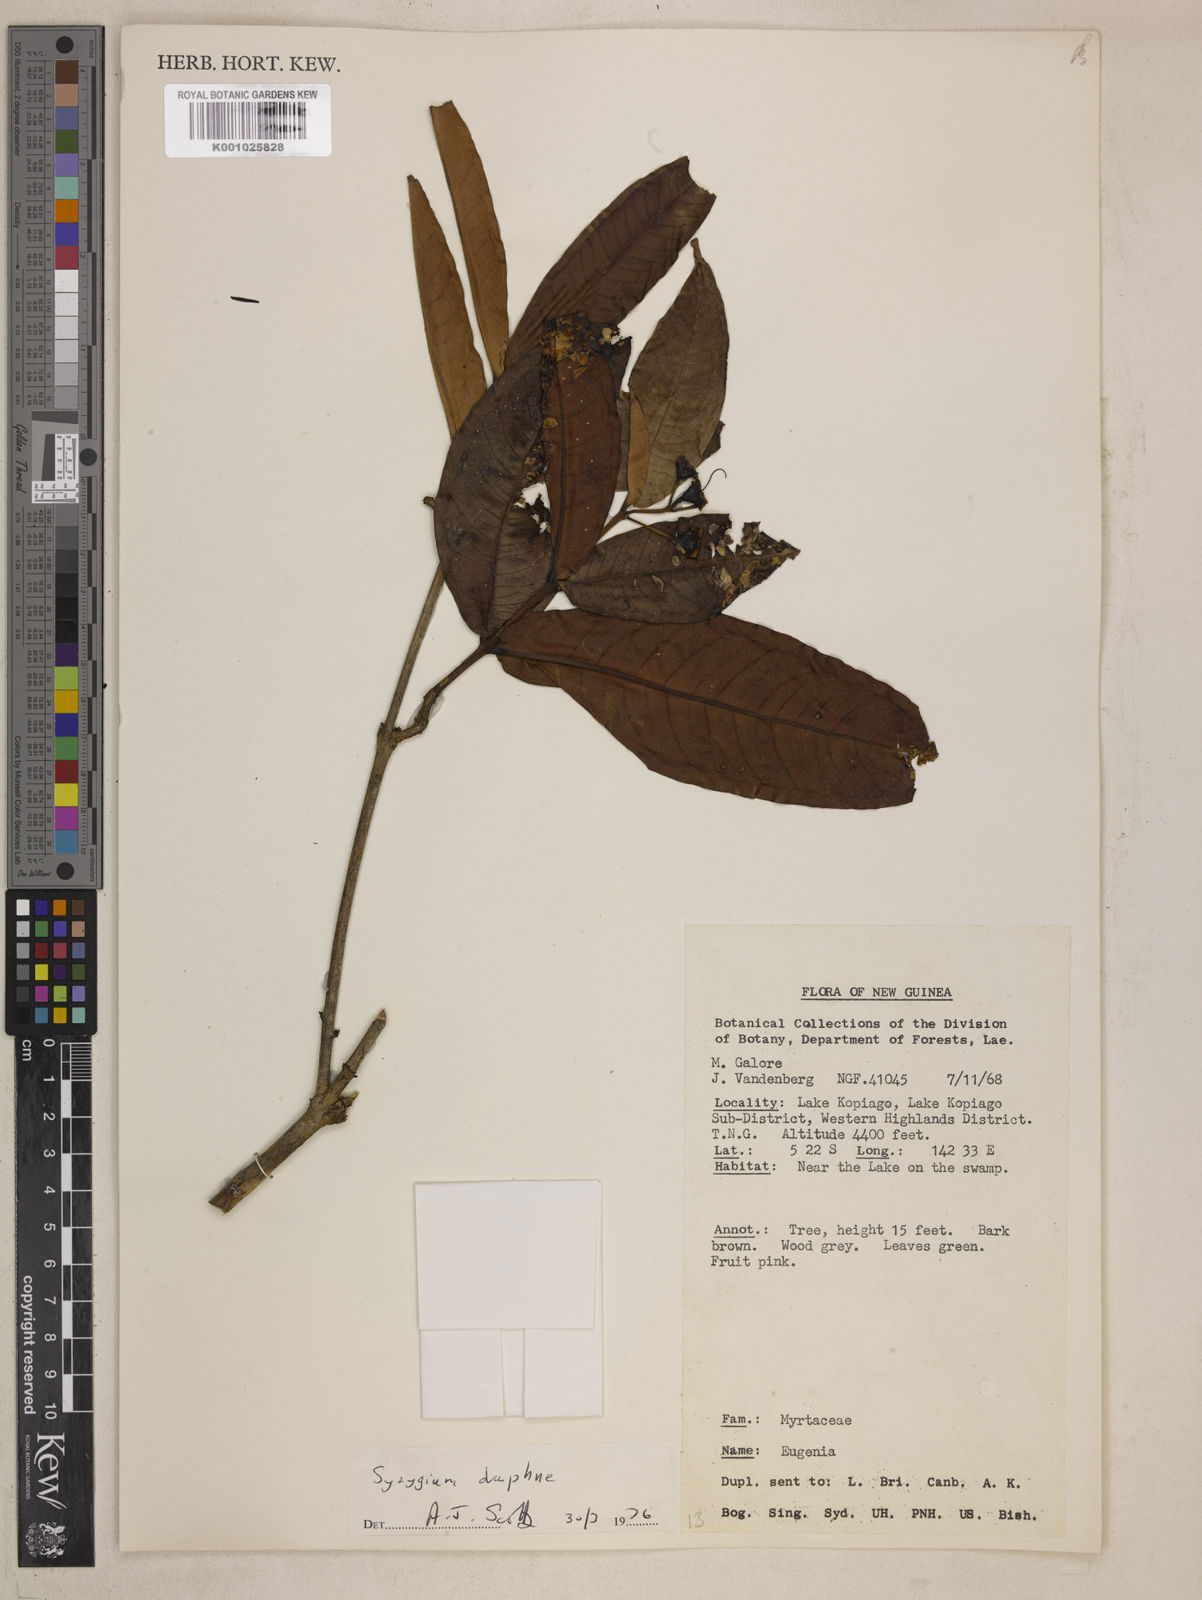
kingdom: Plantae
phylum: Tracheophyta
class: Magnoliopsida
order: Myrtales
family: Myrtaceae
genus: Syzygium
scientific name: Syzygium daphne
